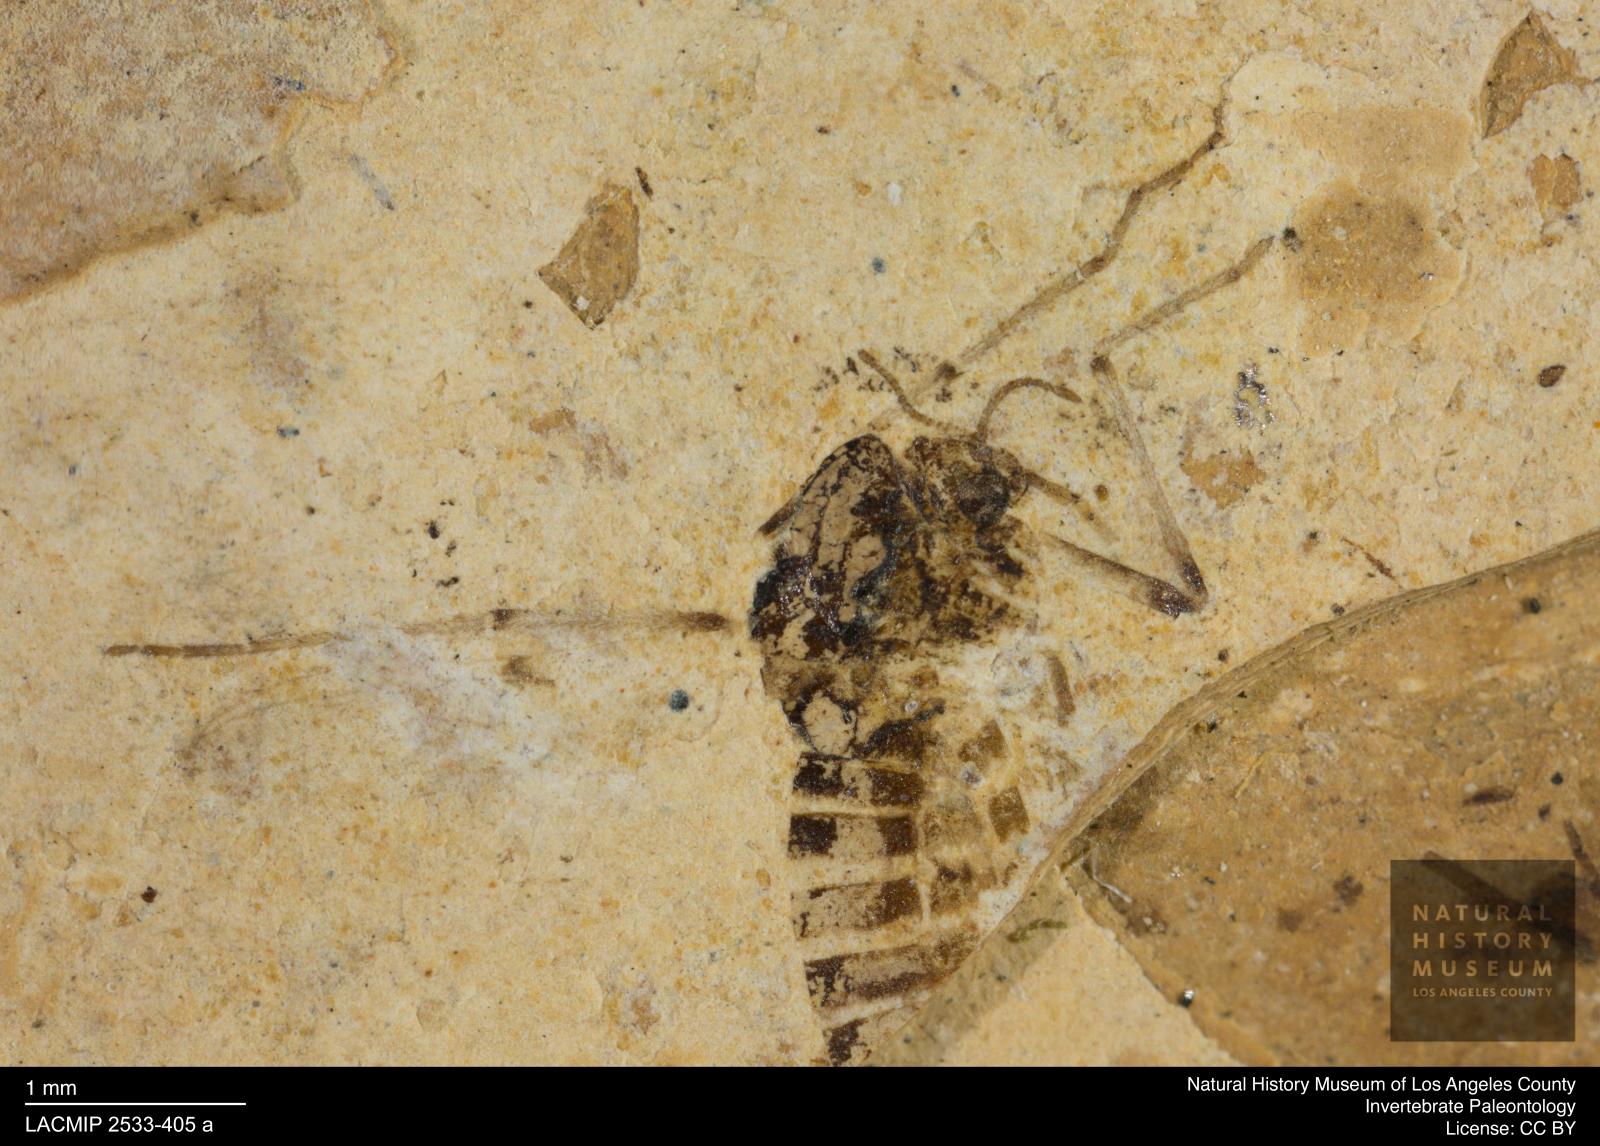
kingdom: Animalia
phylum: Arthropoda
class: Insecta
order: Diptera
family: Chironomidae
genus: Tanypus
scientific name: Tanypus dorminans
